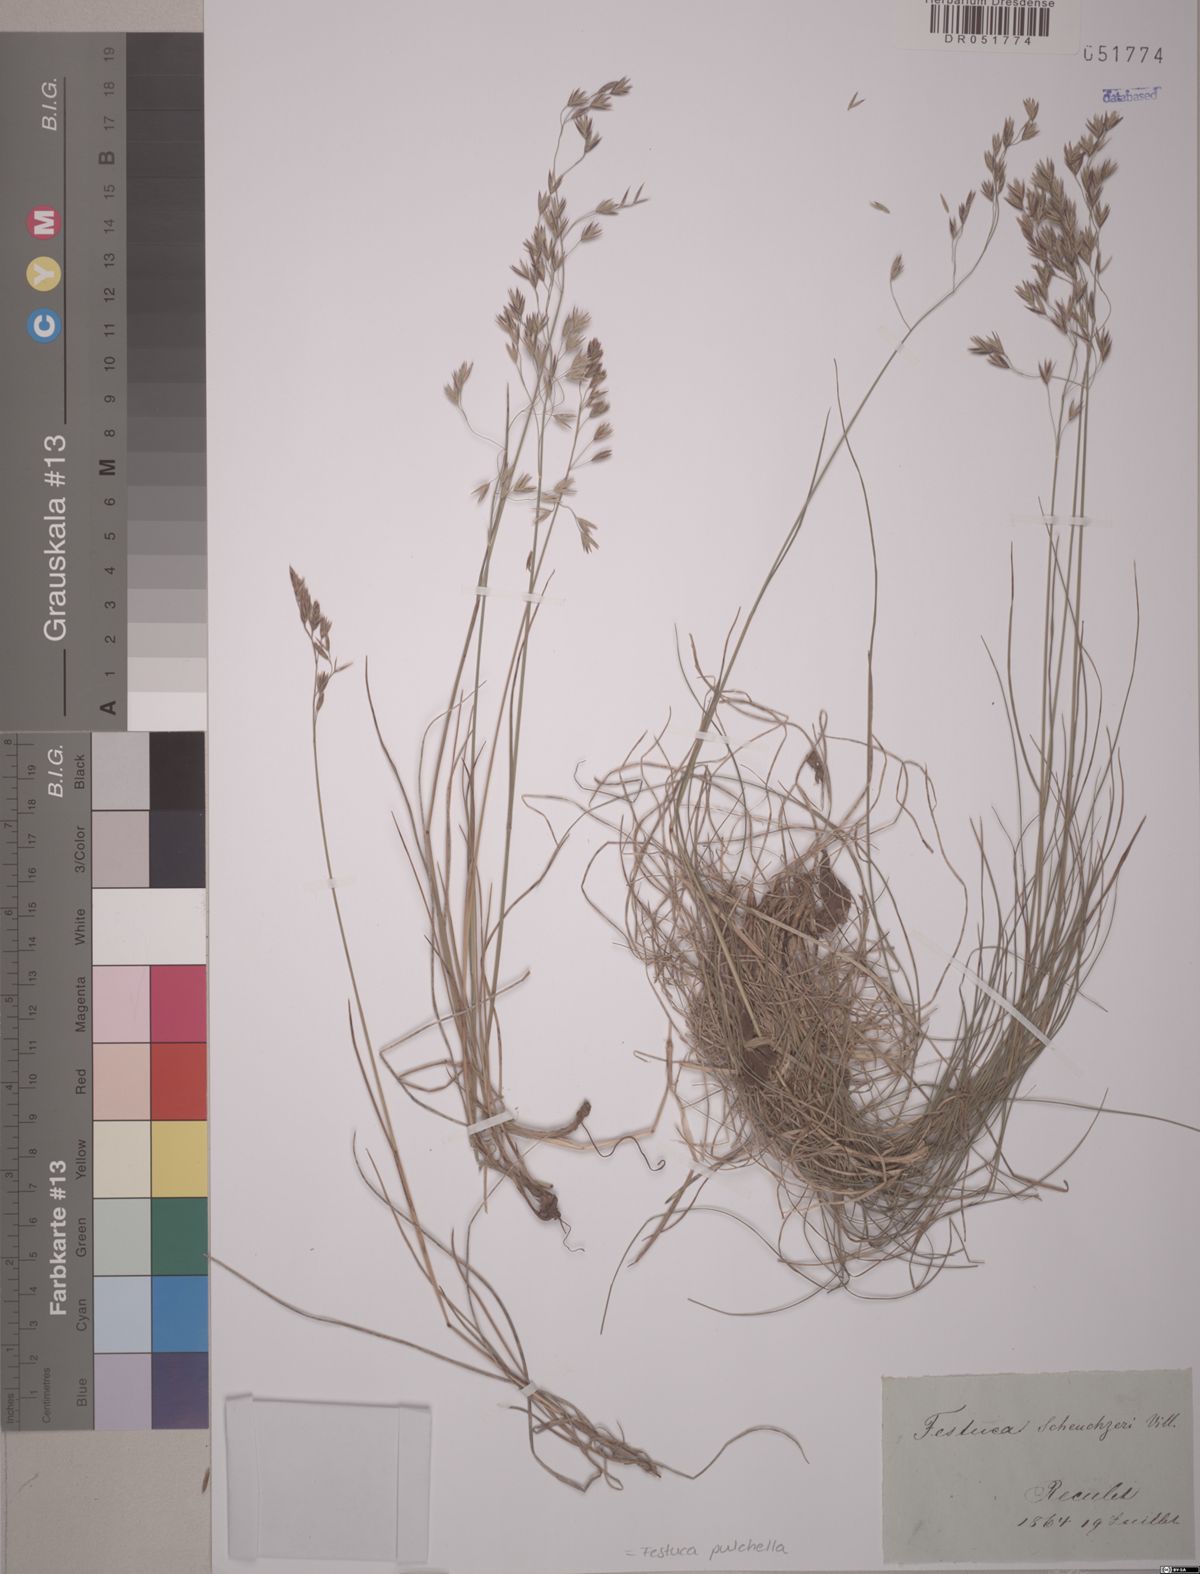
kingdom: Plantae
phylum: Tracheophyta
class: Liliopsida
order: Poales
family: Poaceae
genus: Festuca
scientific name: Festuca pulchella
